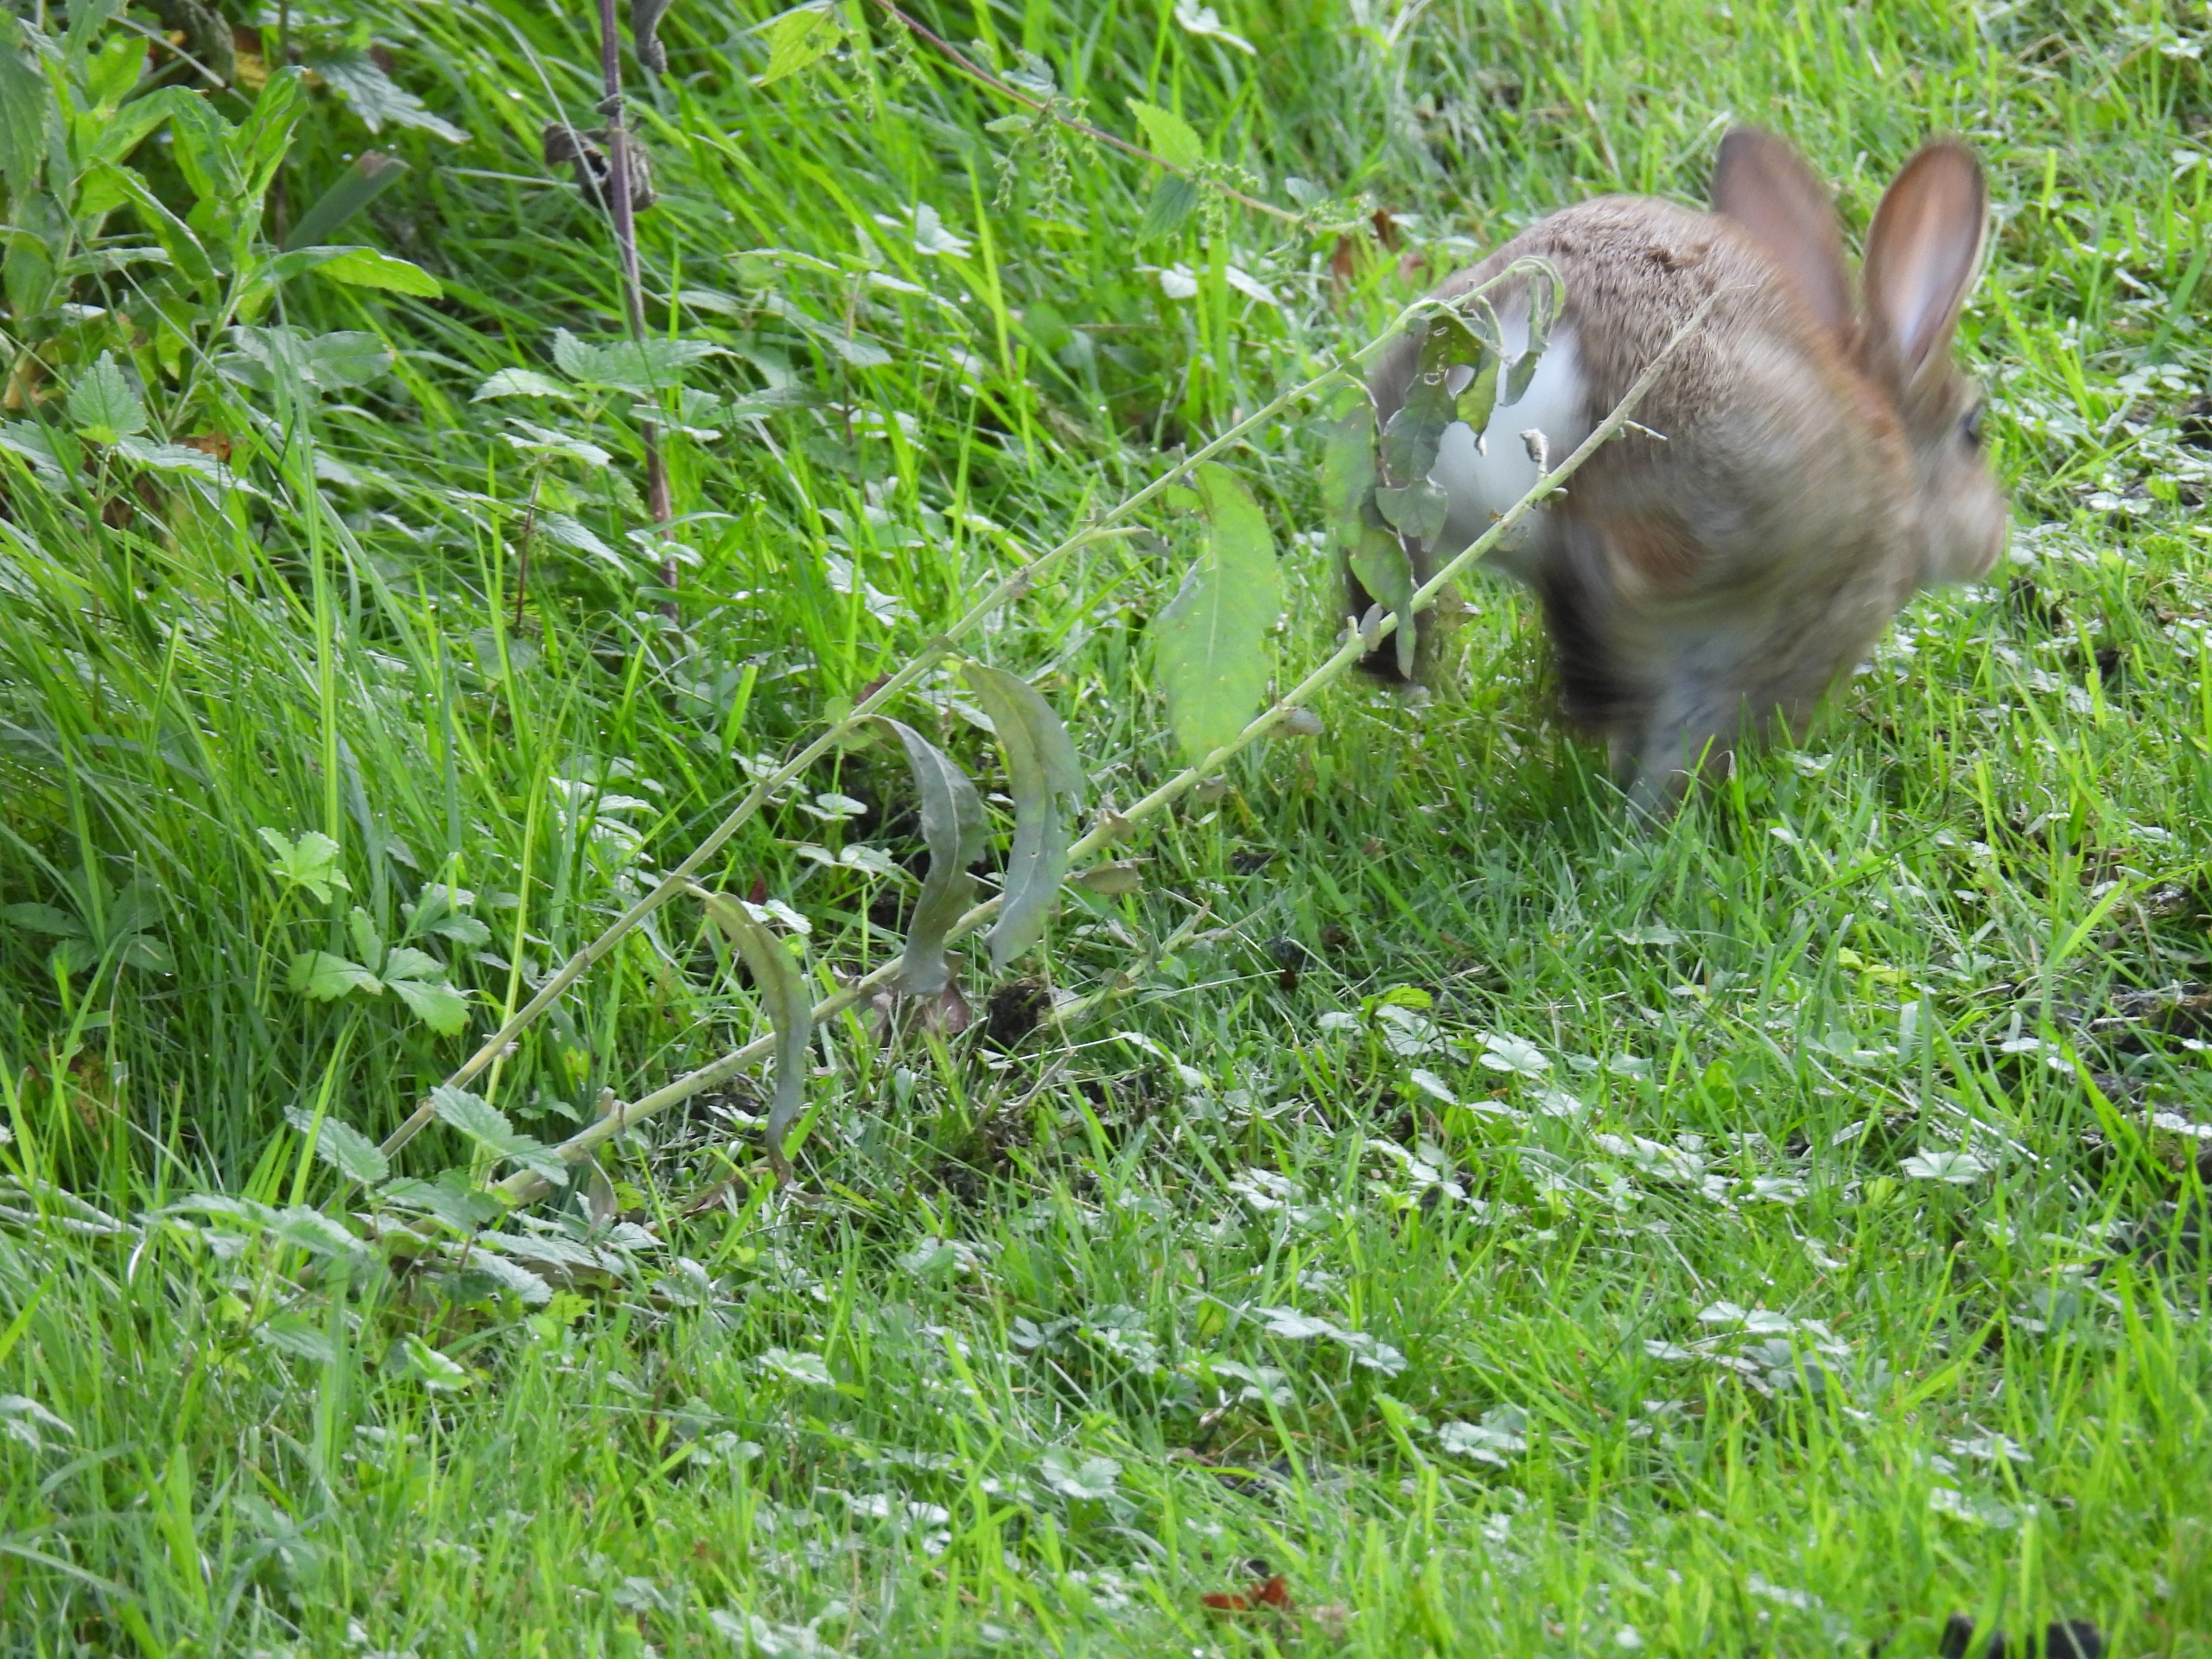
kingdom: Animalia
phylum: Chordata
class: Mammalia
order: Lagomorpha
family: Leporidae
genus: Oryctolagus
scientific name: Oryctolagus cuniculus
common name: Vildkanin
